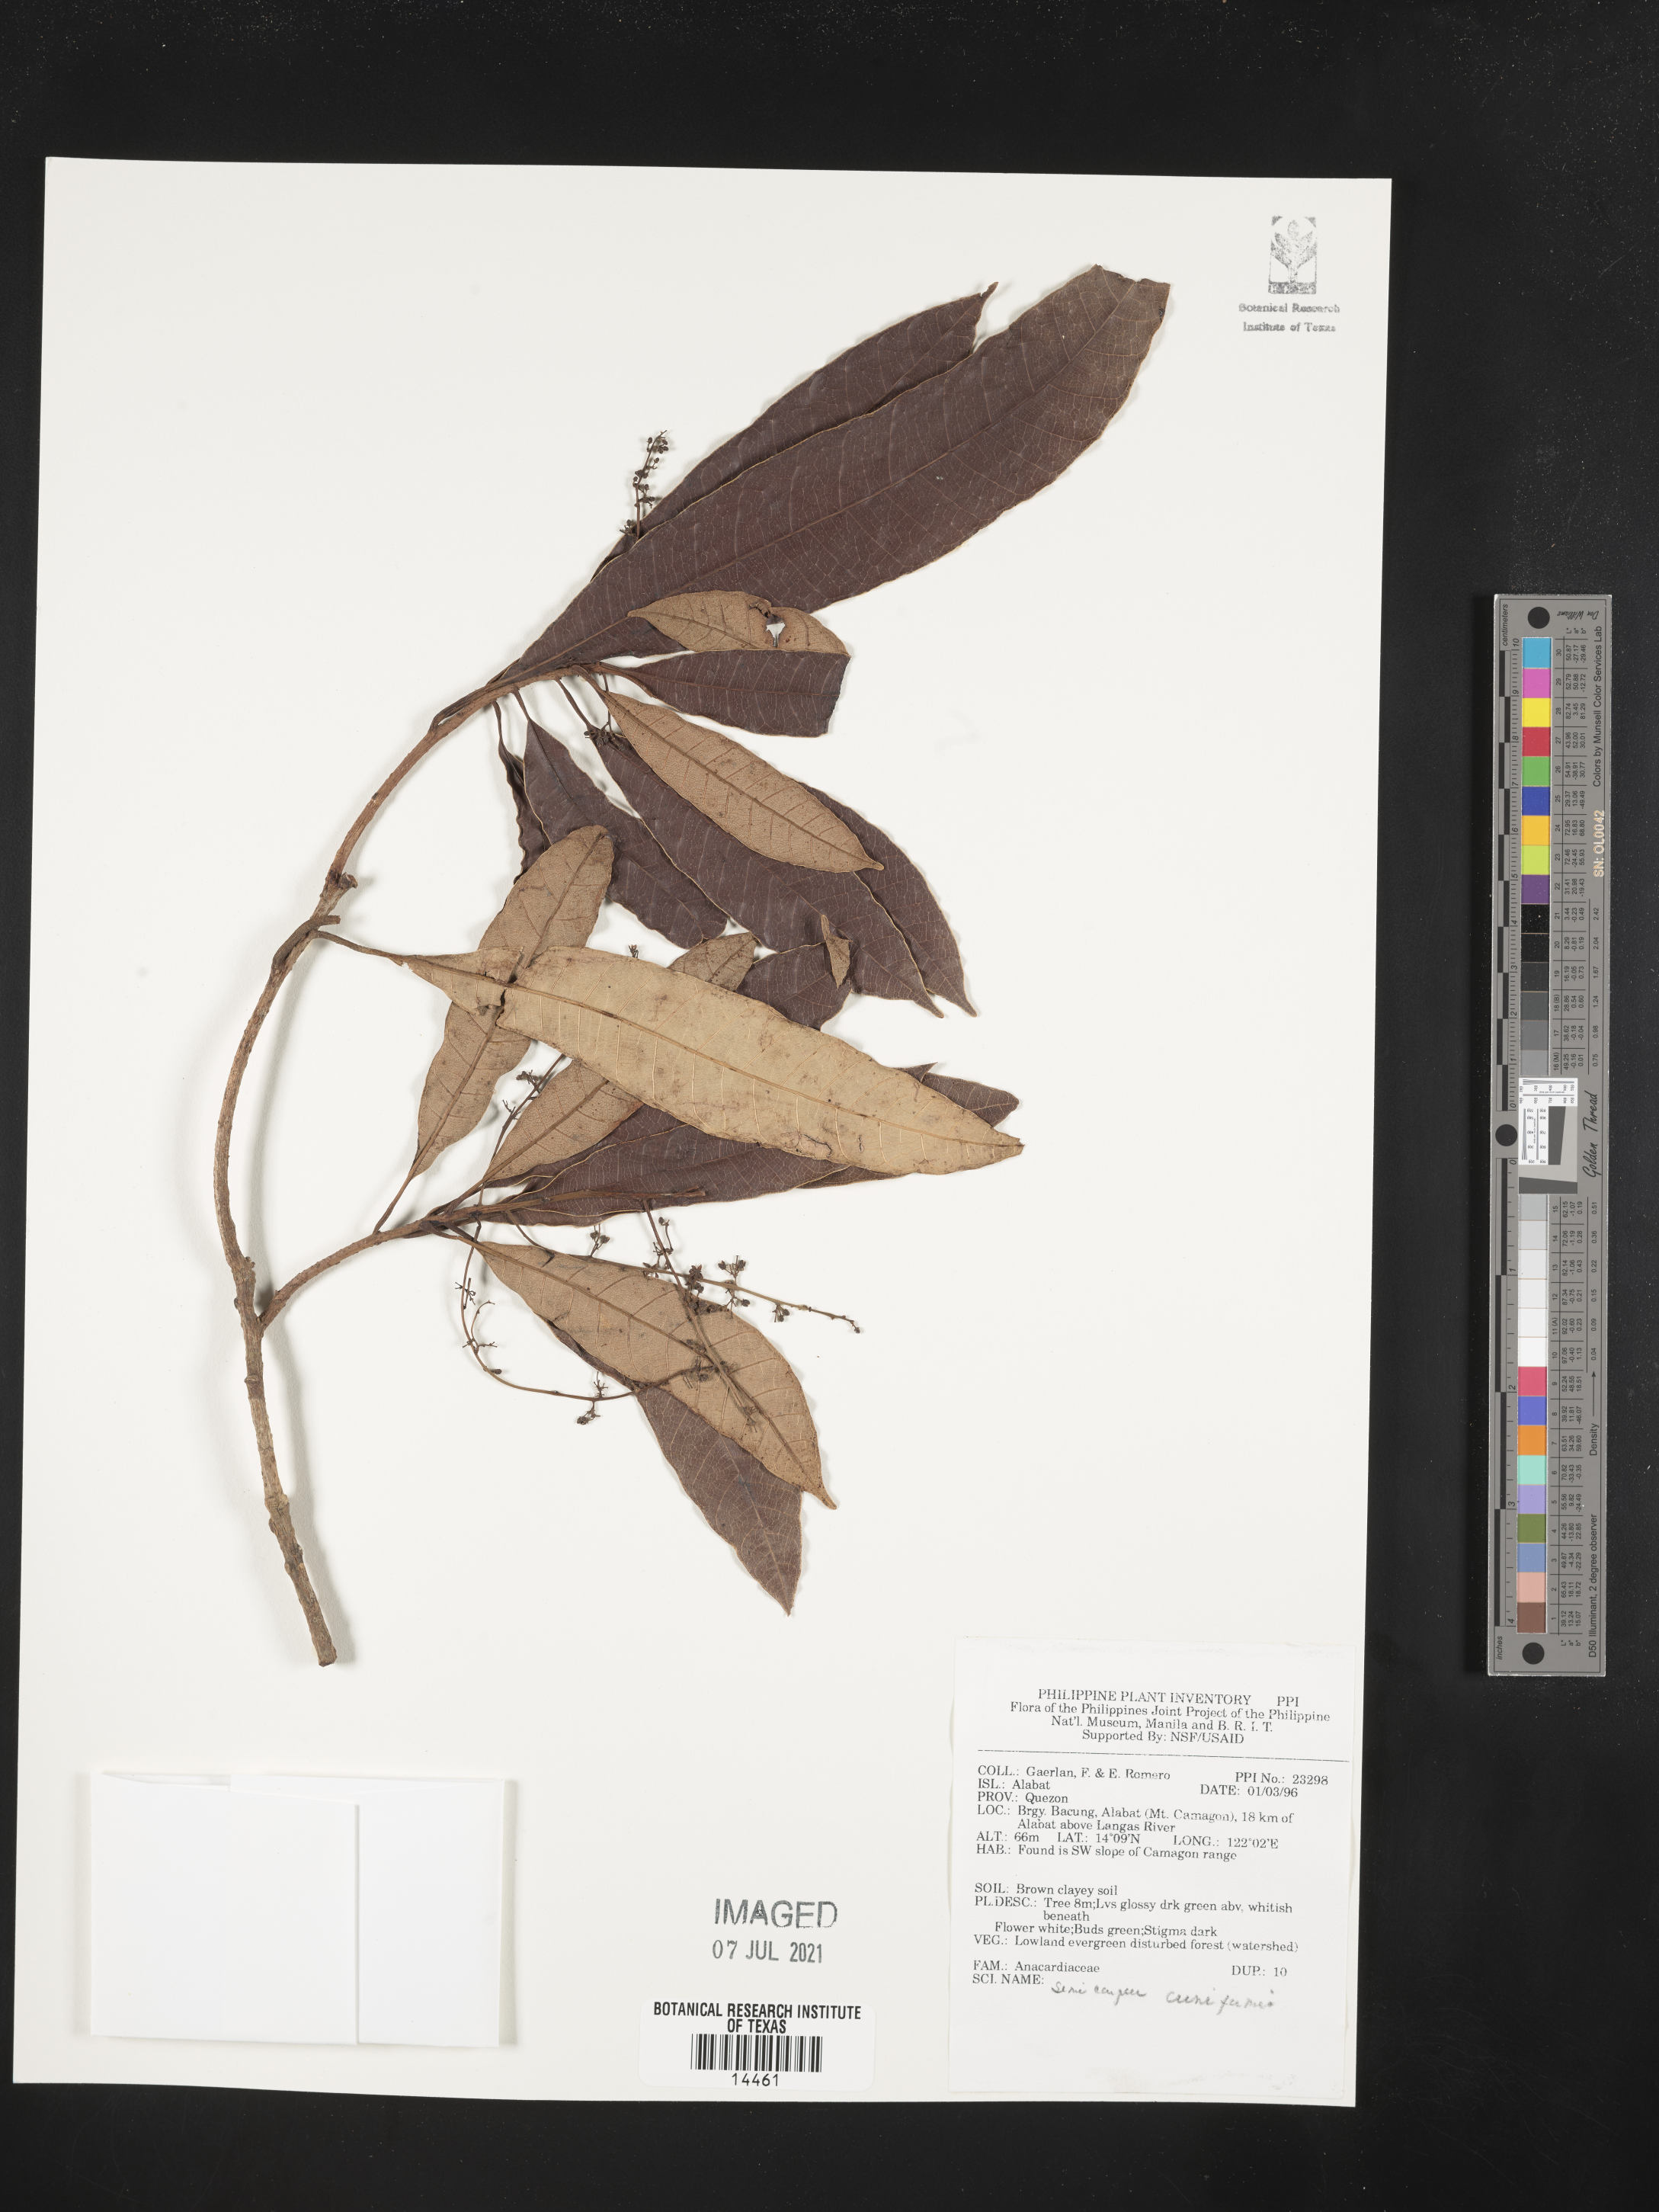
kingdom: Plantae
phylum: Tracheophyta
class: Magnoliopsida
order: Sapindales
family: Anacardiaceae
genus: Semecarpus
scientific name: Semecarpus cuneiformis
